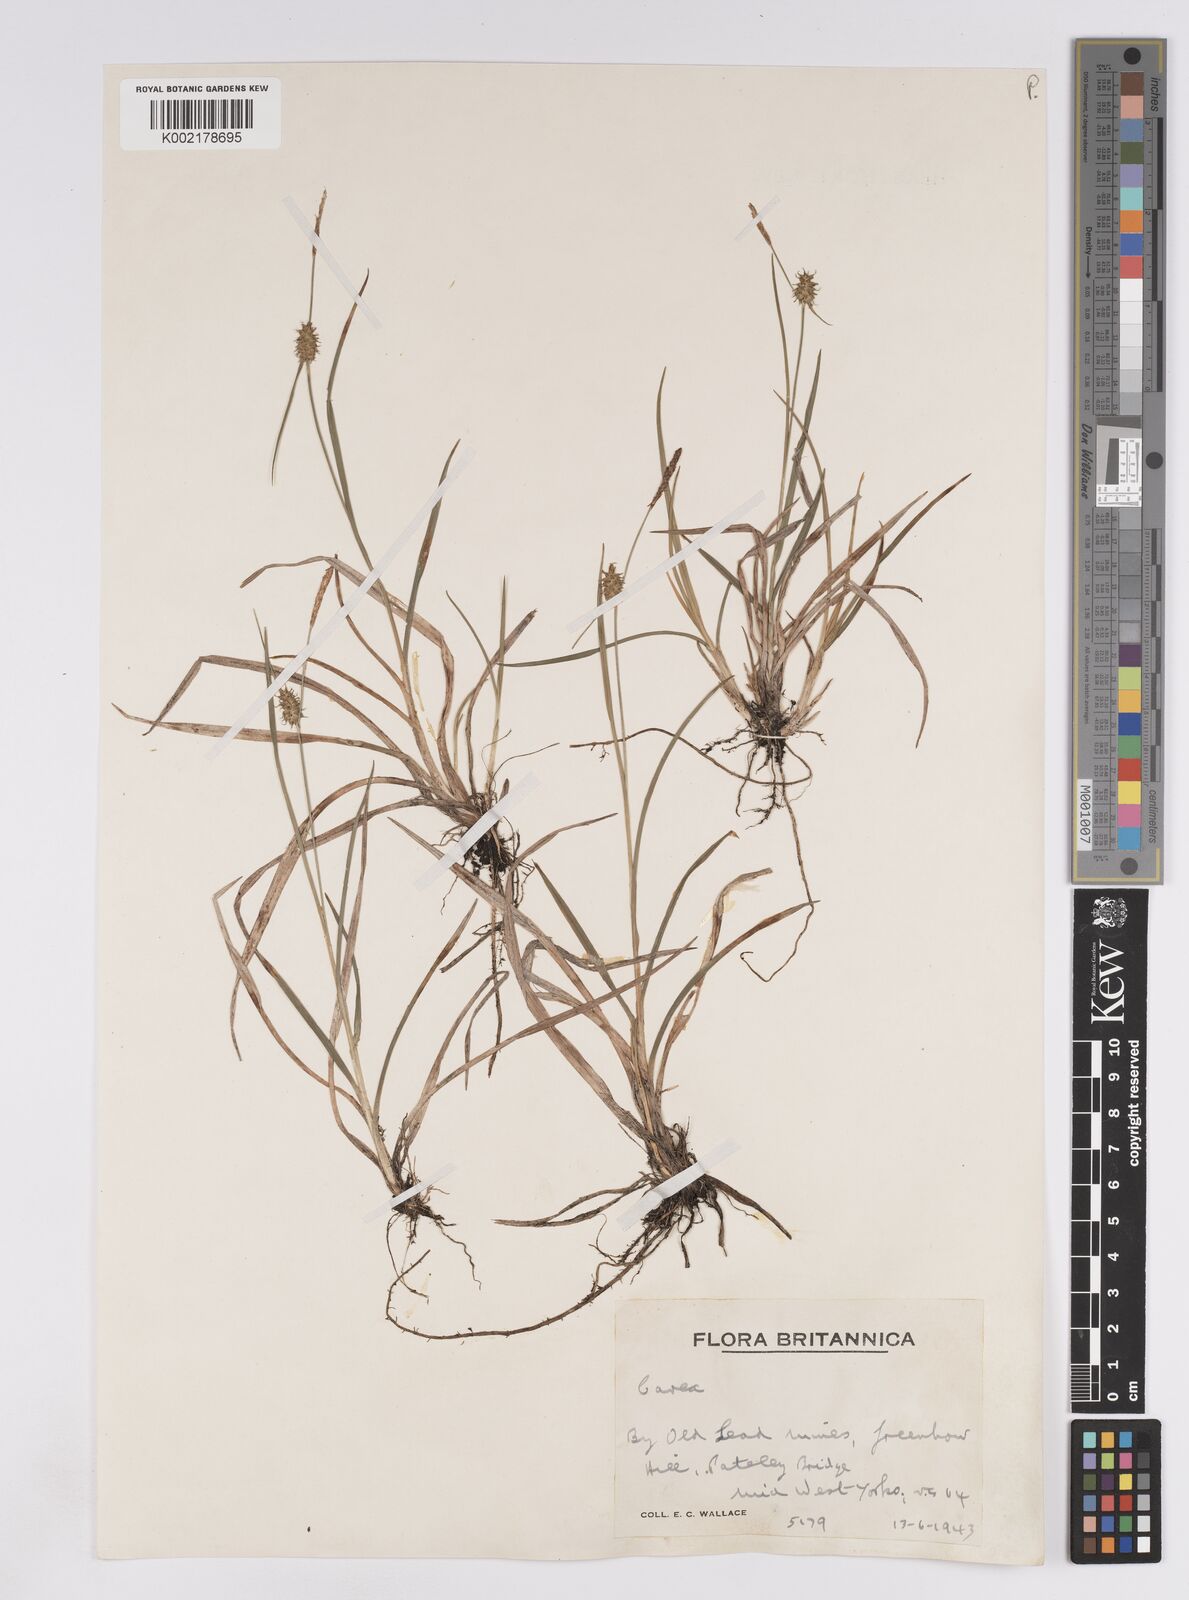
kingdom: Plantae
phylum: Tracheophyta
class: Liliopsida
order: Poales
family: Cyperaceae
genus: Carex
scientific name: Carex lepidocarpa
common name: Long-stalked yellow-sedge
